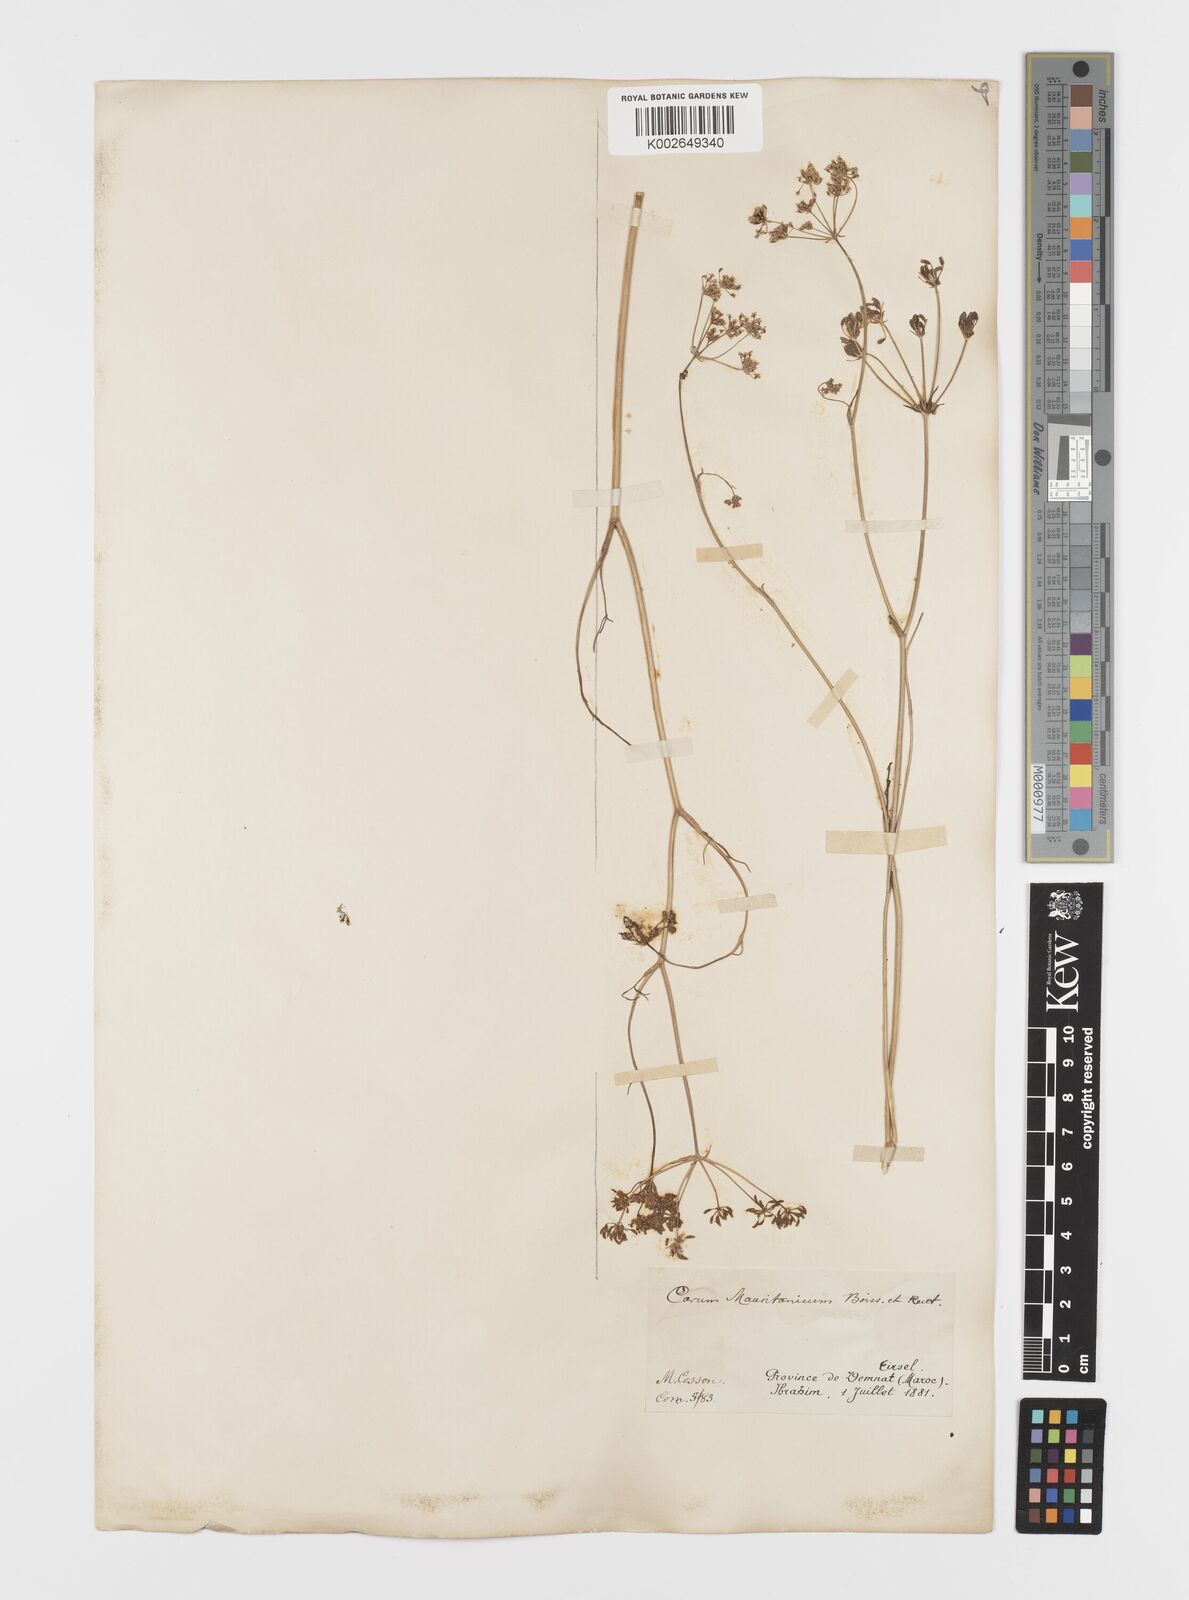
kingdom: Plantae
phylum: Tracheophyta
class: Magnoliopsida
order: Apiales
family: Apiaceae
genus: Bunium
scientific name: Bunium fontanesii
